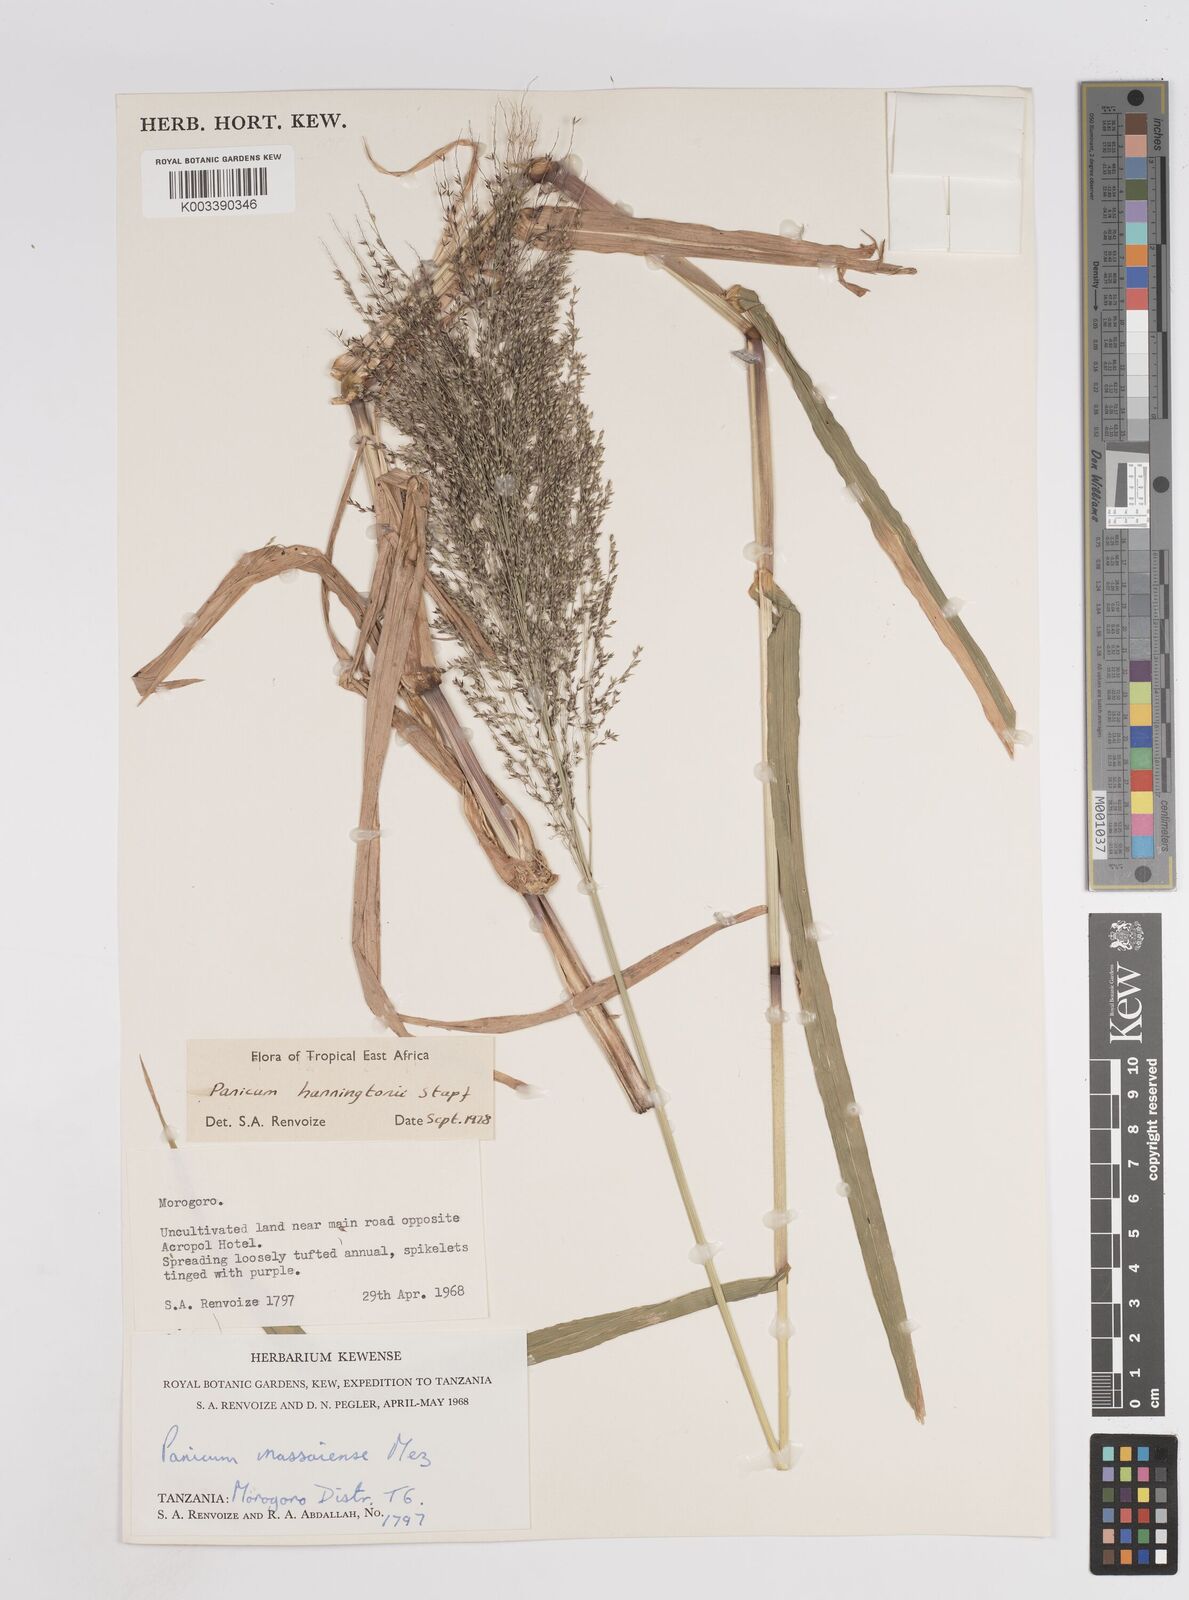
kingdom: Plantae
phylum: Tracheophyta
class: Liliopsida
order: Poales
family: Poaceae
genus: Panicum
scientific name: Panicum hanningtonii
